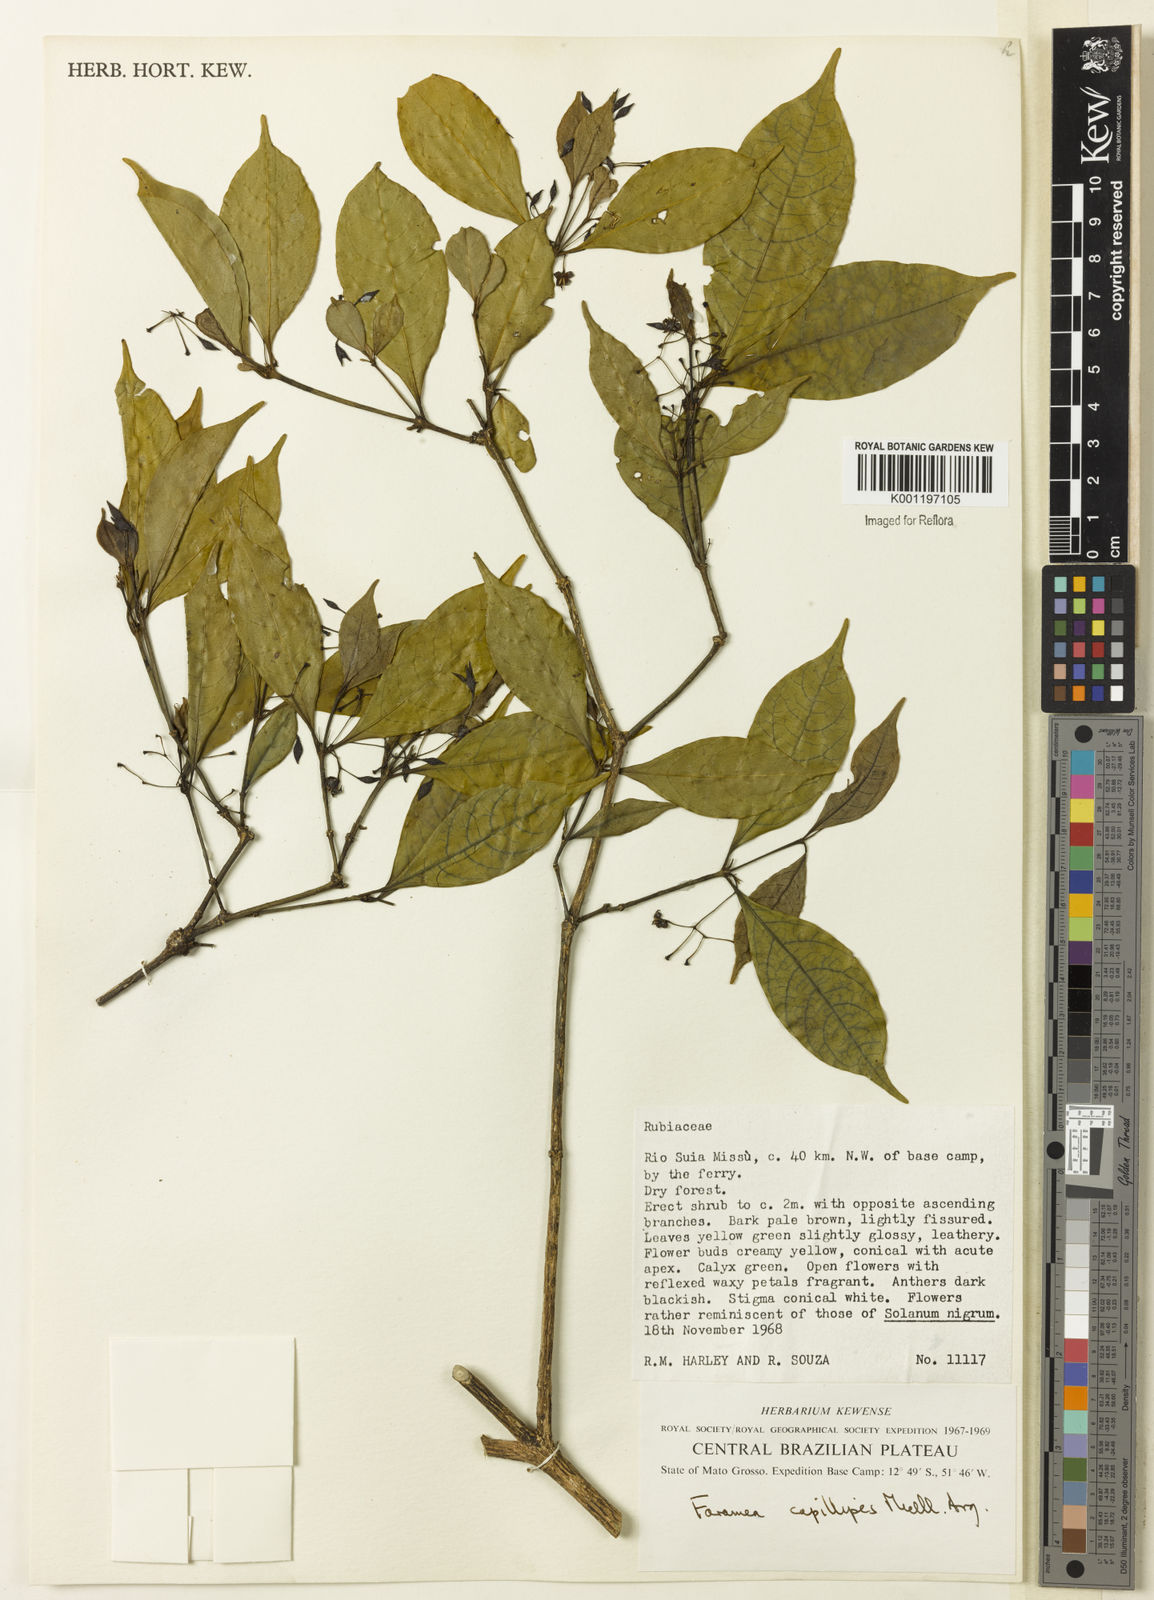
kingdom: Plantae
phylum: Tracheophyta
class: Magnoliopsida
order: Gentianales
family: Rubiaceae
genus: Faramea
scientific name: Faramea
